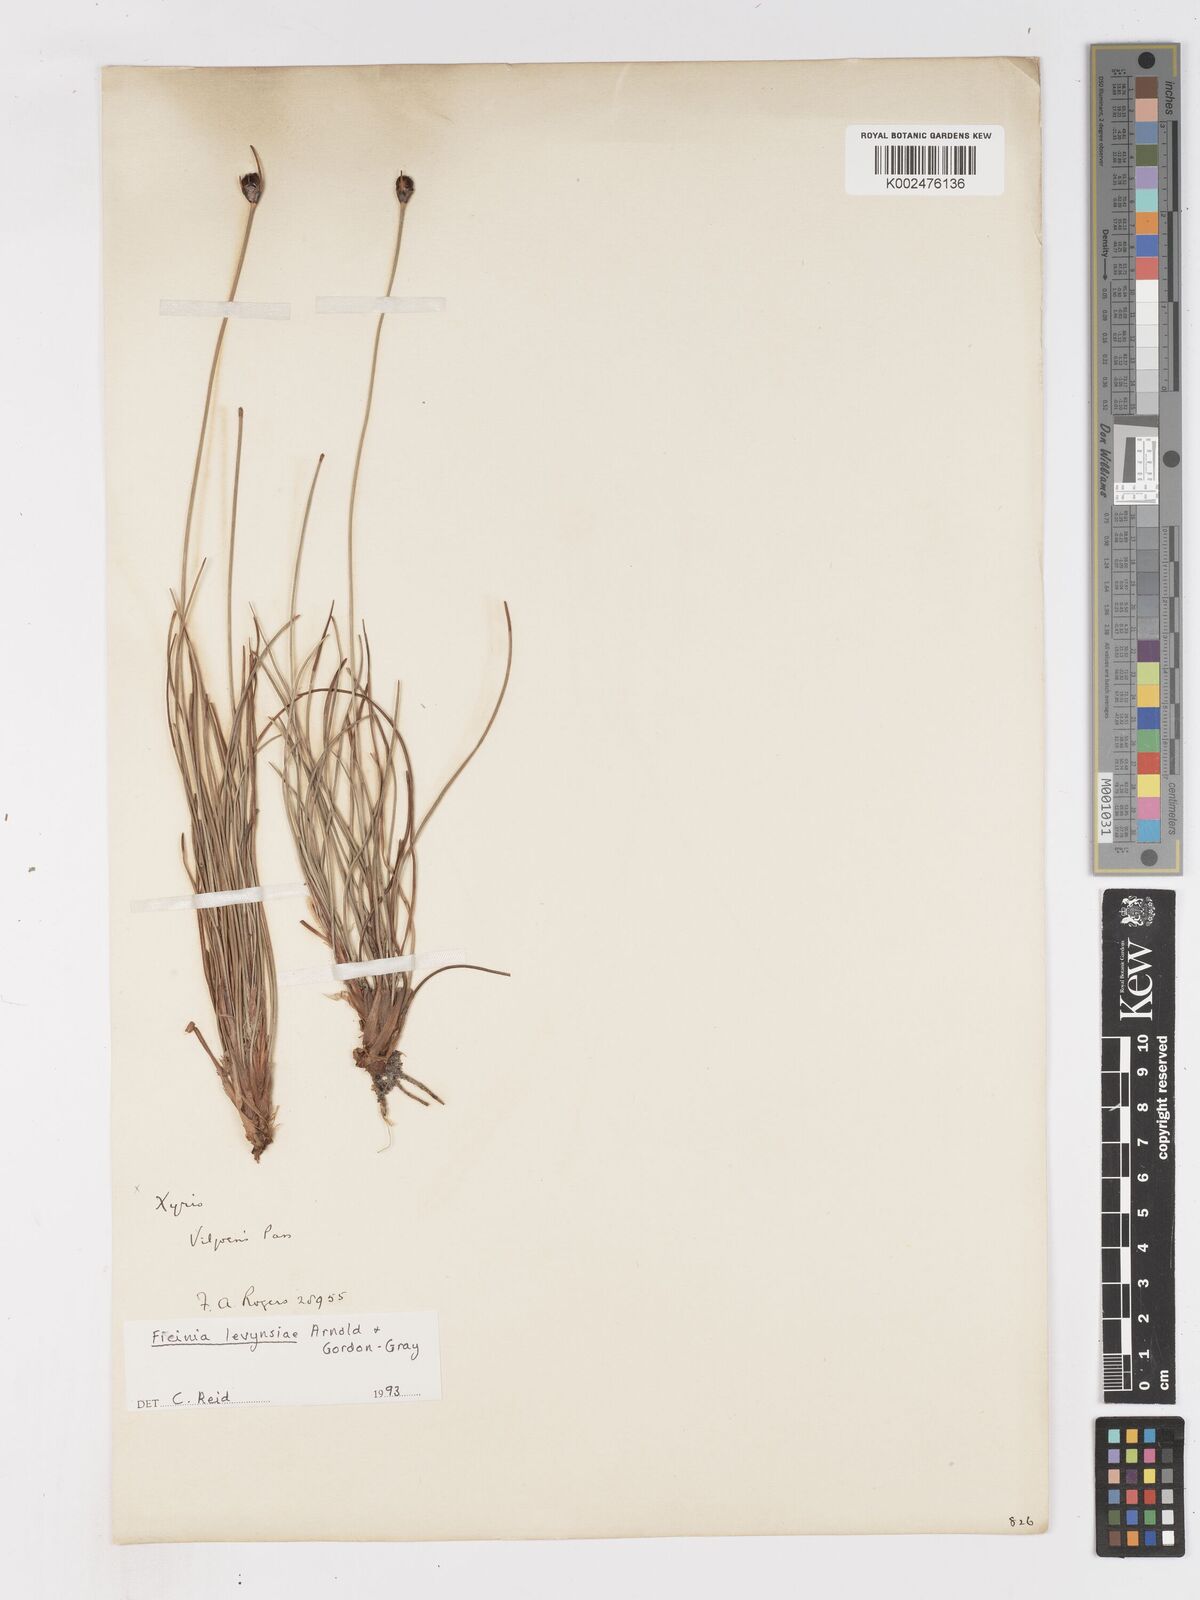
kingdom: Plantae
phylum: Tracheophyta
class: Liliopsida
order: Poales
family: Cyperaceae
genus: Ficinia
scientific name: Ficinia levynsiae
